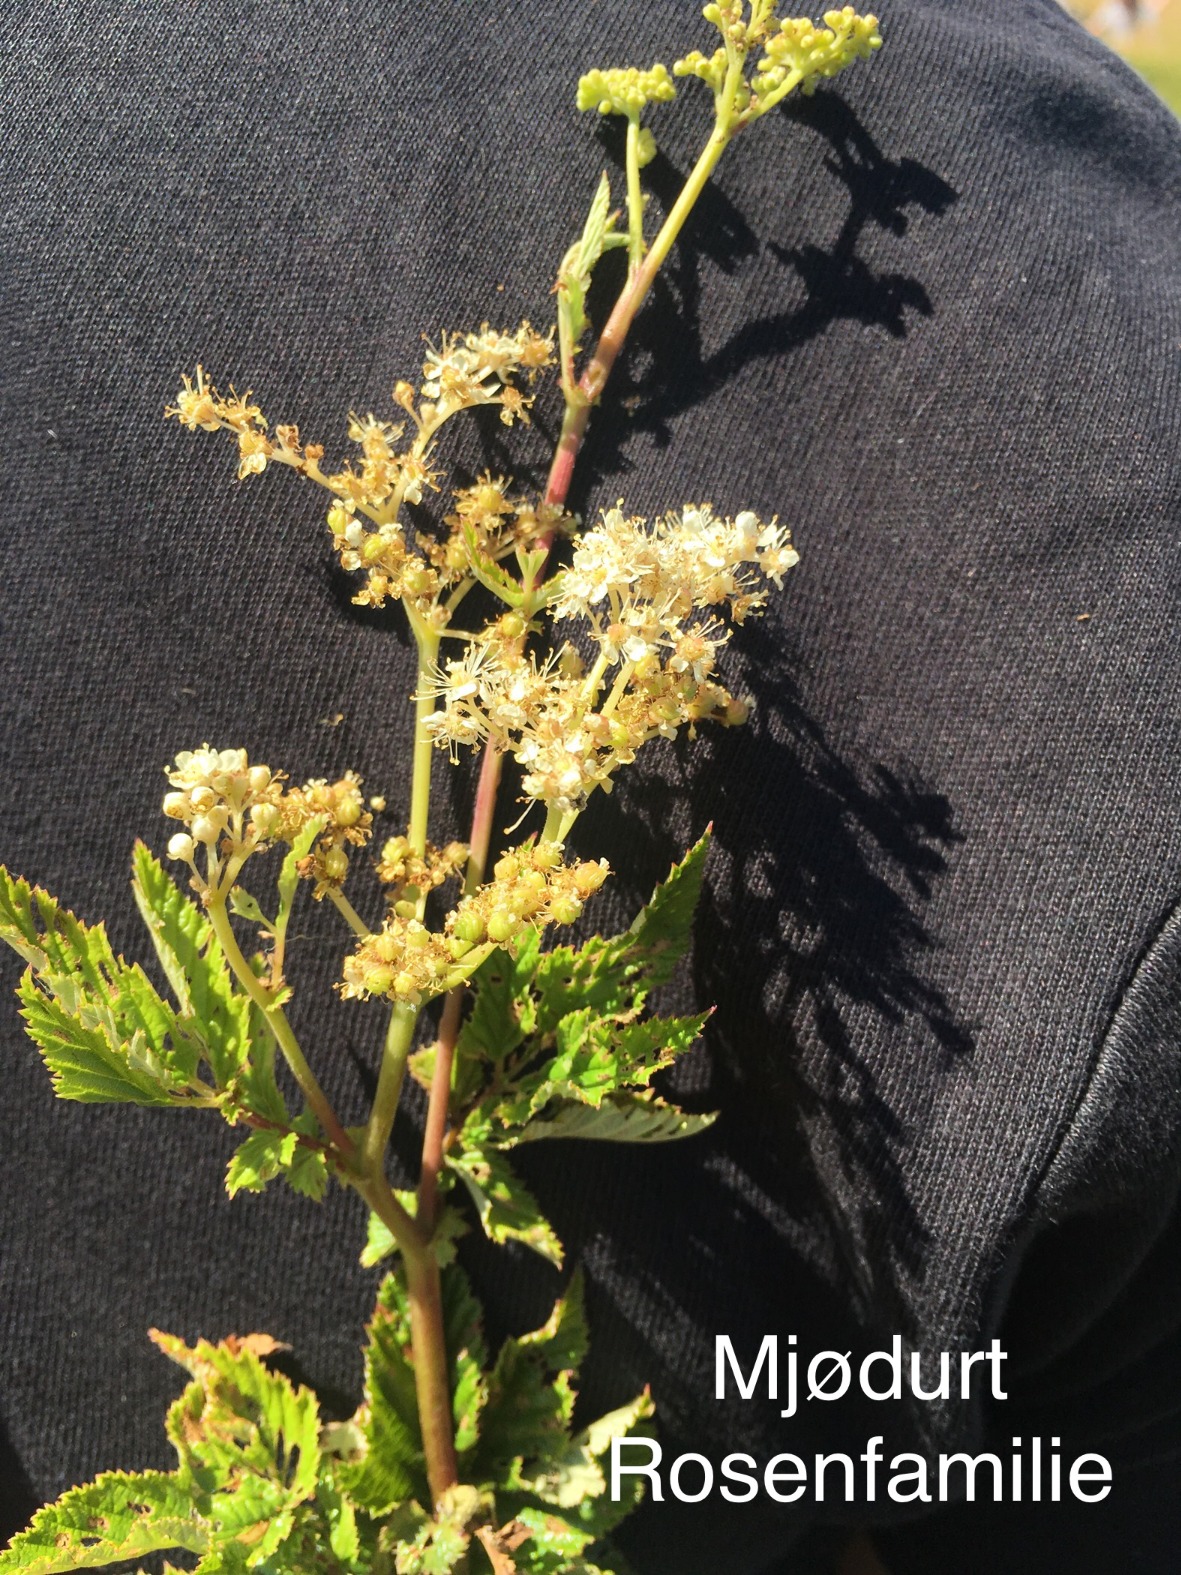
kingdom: Plantae
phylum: Tracheophyta
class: Magnoliopsida
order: Rosales
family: Rosaceae
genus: Filipendula
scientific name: Filipendula ulmaria
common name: Almindelig mjødurt
